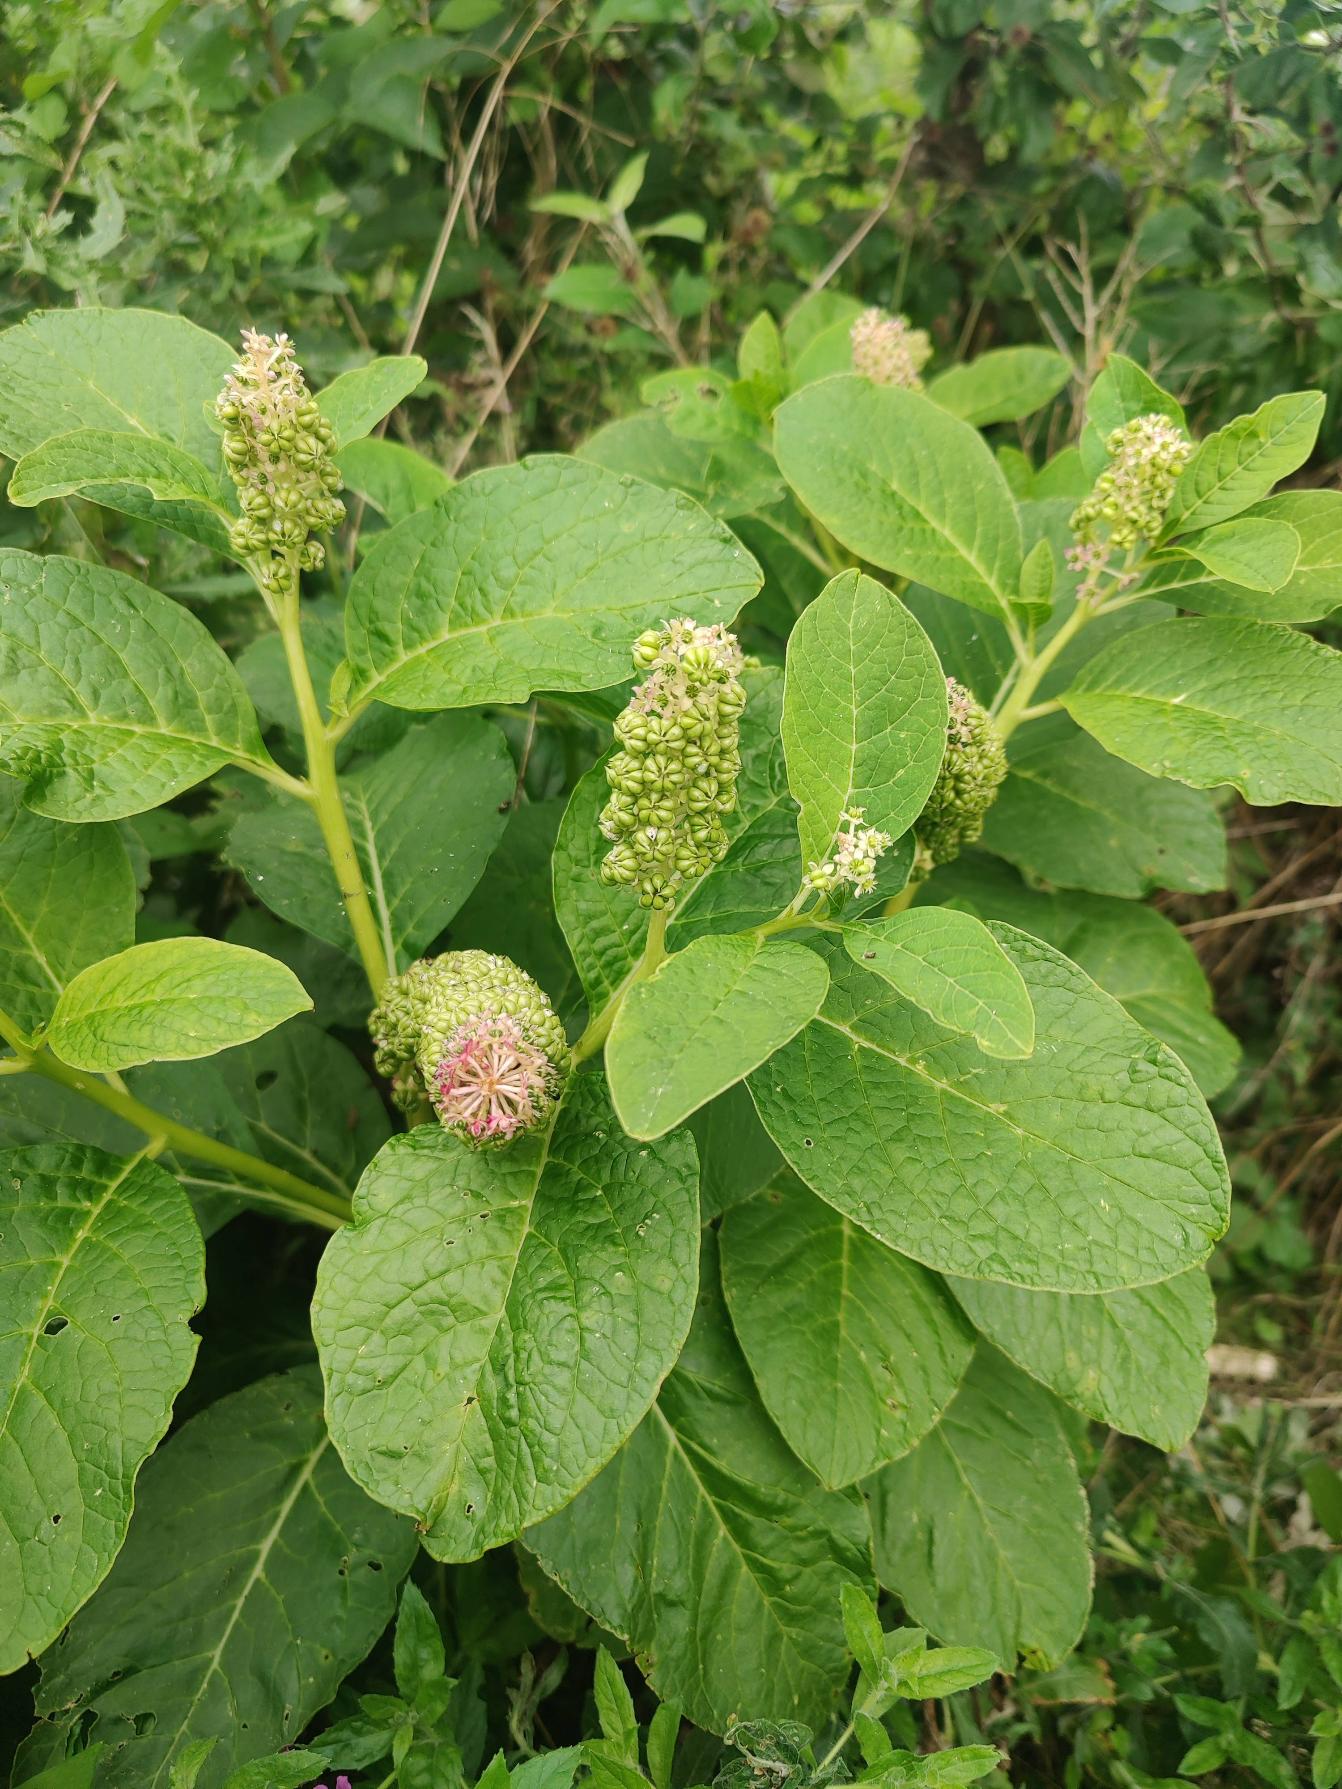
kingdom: Plantae
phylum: Tracheophyta
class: Magnoliopsida
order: Caryophyllales
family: Phytolaccaceae
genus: Phytolacca
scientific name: Phytolacca acinosa
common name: Asiatisk kermesbær
